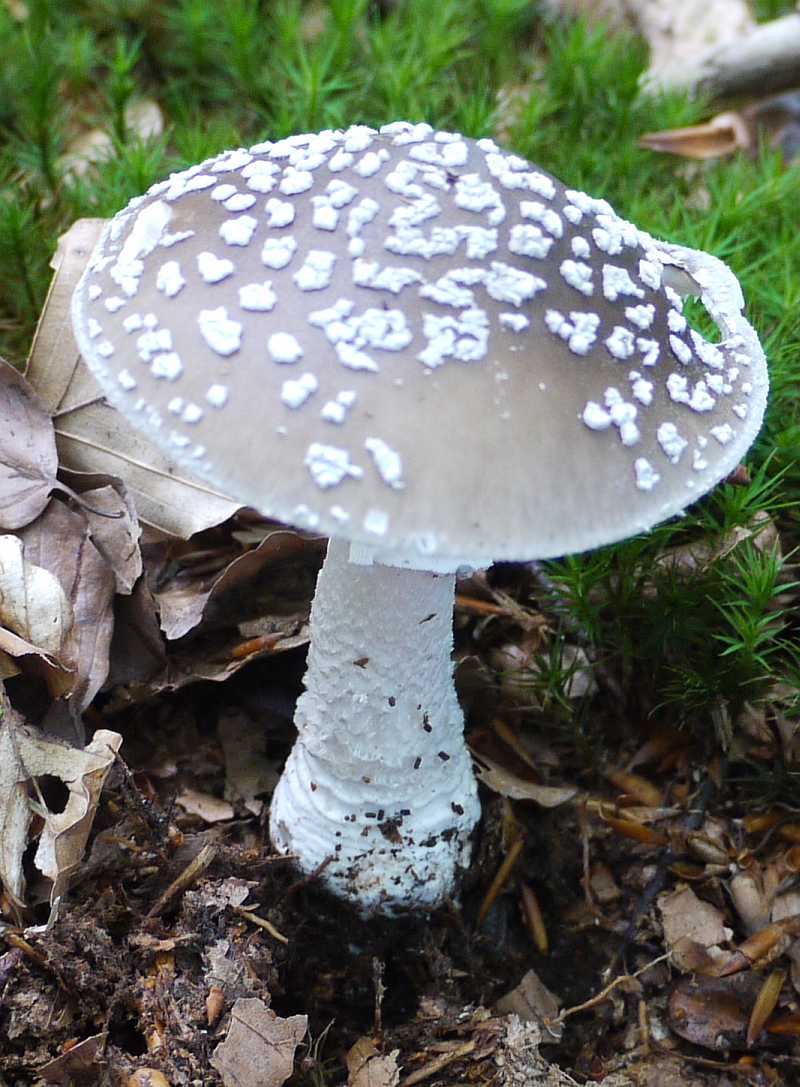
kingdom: Fungi
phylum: Basidiomycota
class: Agaricomycetes
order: Agaricales
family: Amanitaceae
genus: Amanita
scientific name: Amanita
